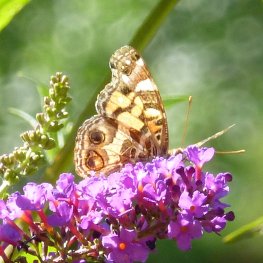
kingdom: Animalia
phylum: Arthropoda
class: Insecta
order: Lepidoptera
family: Nymphalidae
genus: Vanessa
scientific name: Vanessa virginiensis
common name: American Lady
